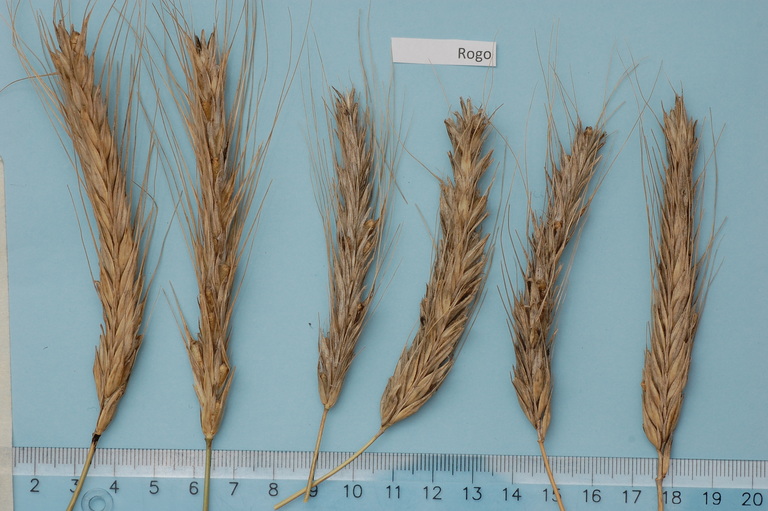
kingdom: Plantae
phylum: Tracheophyta
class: Liliopsida
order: Poales
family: Poaceae
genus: Secale
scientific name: Secale cereale
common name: Rye
